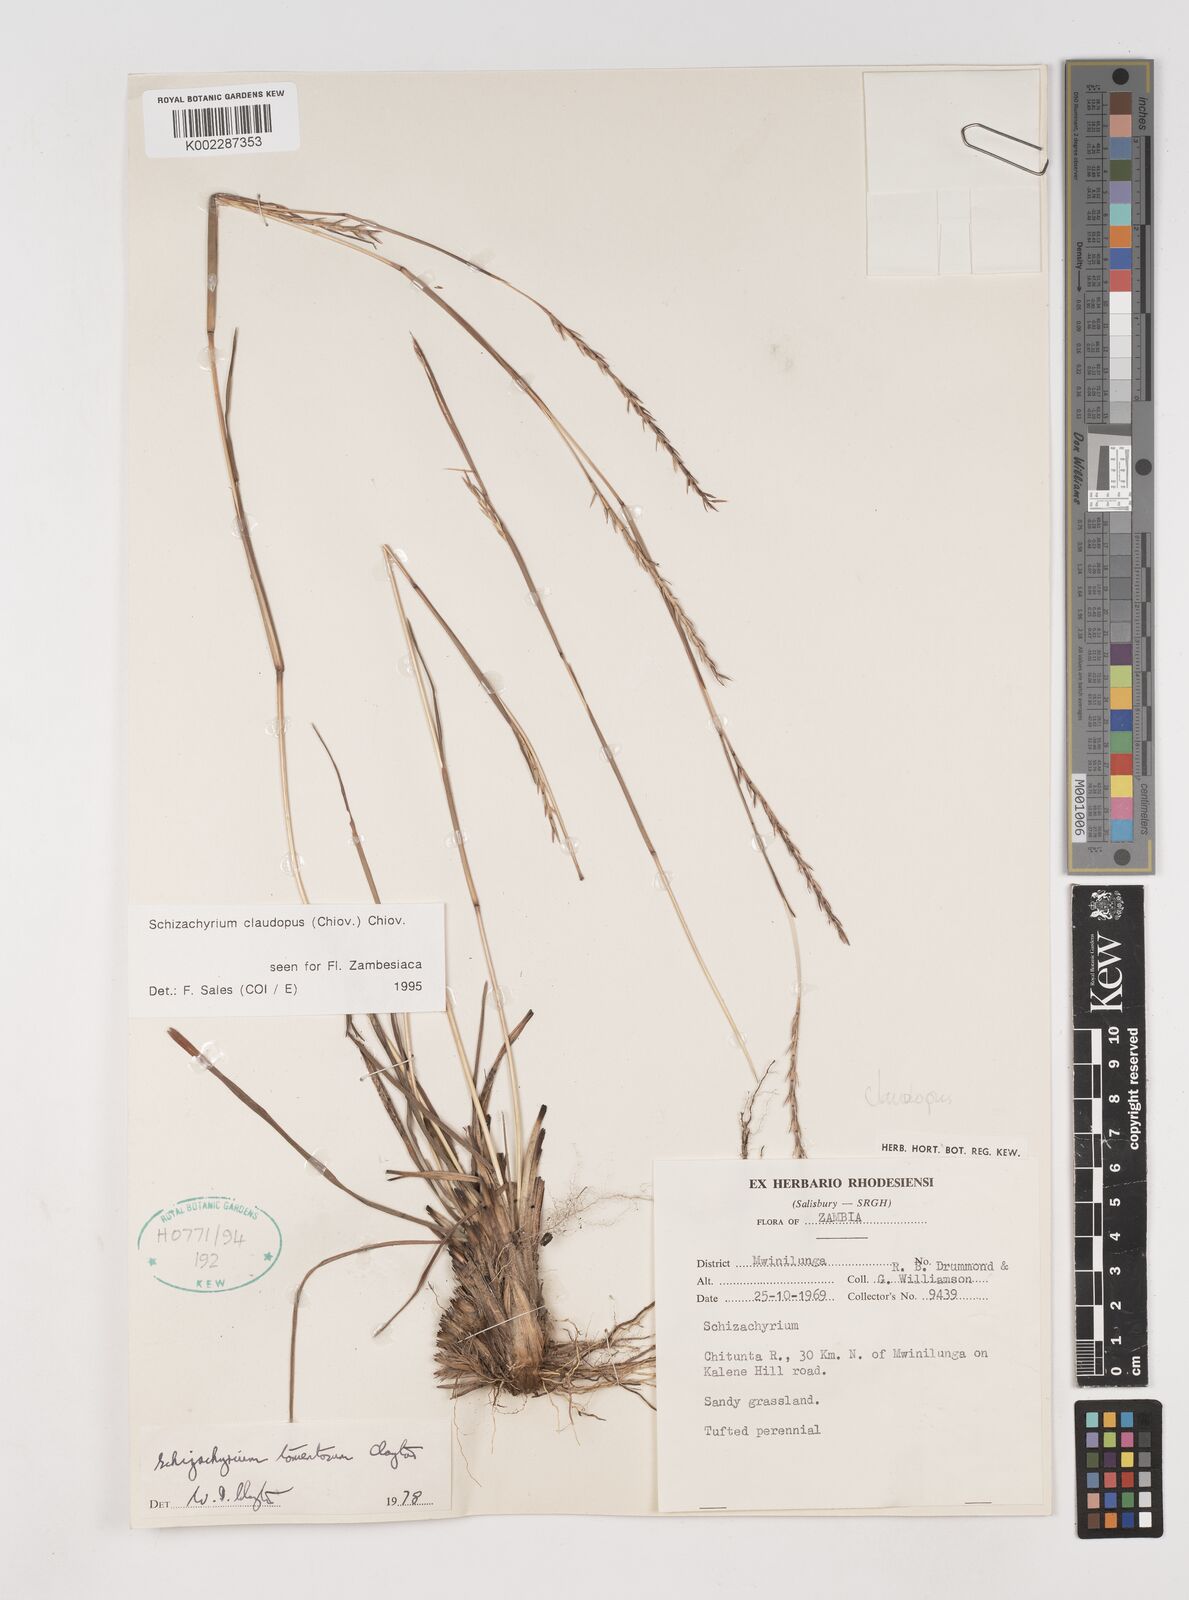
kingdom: Plantae
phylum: Tracheophyta
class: Liliopsida
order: Poales
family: Poaceae
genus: Schizachyrium
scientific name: Schizachyrium claudopus
